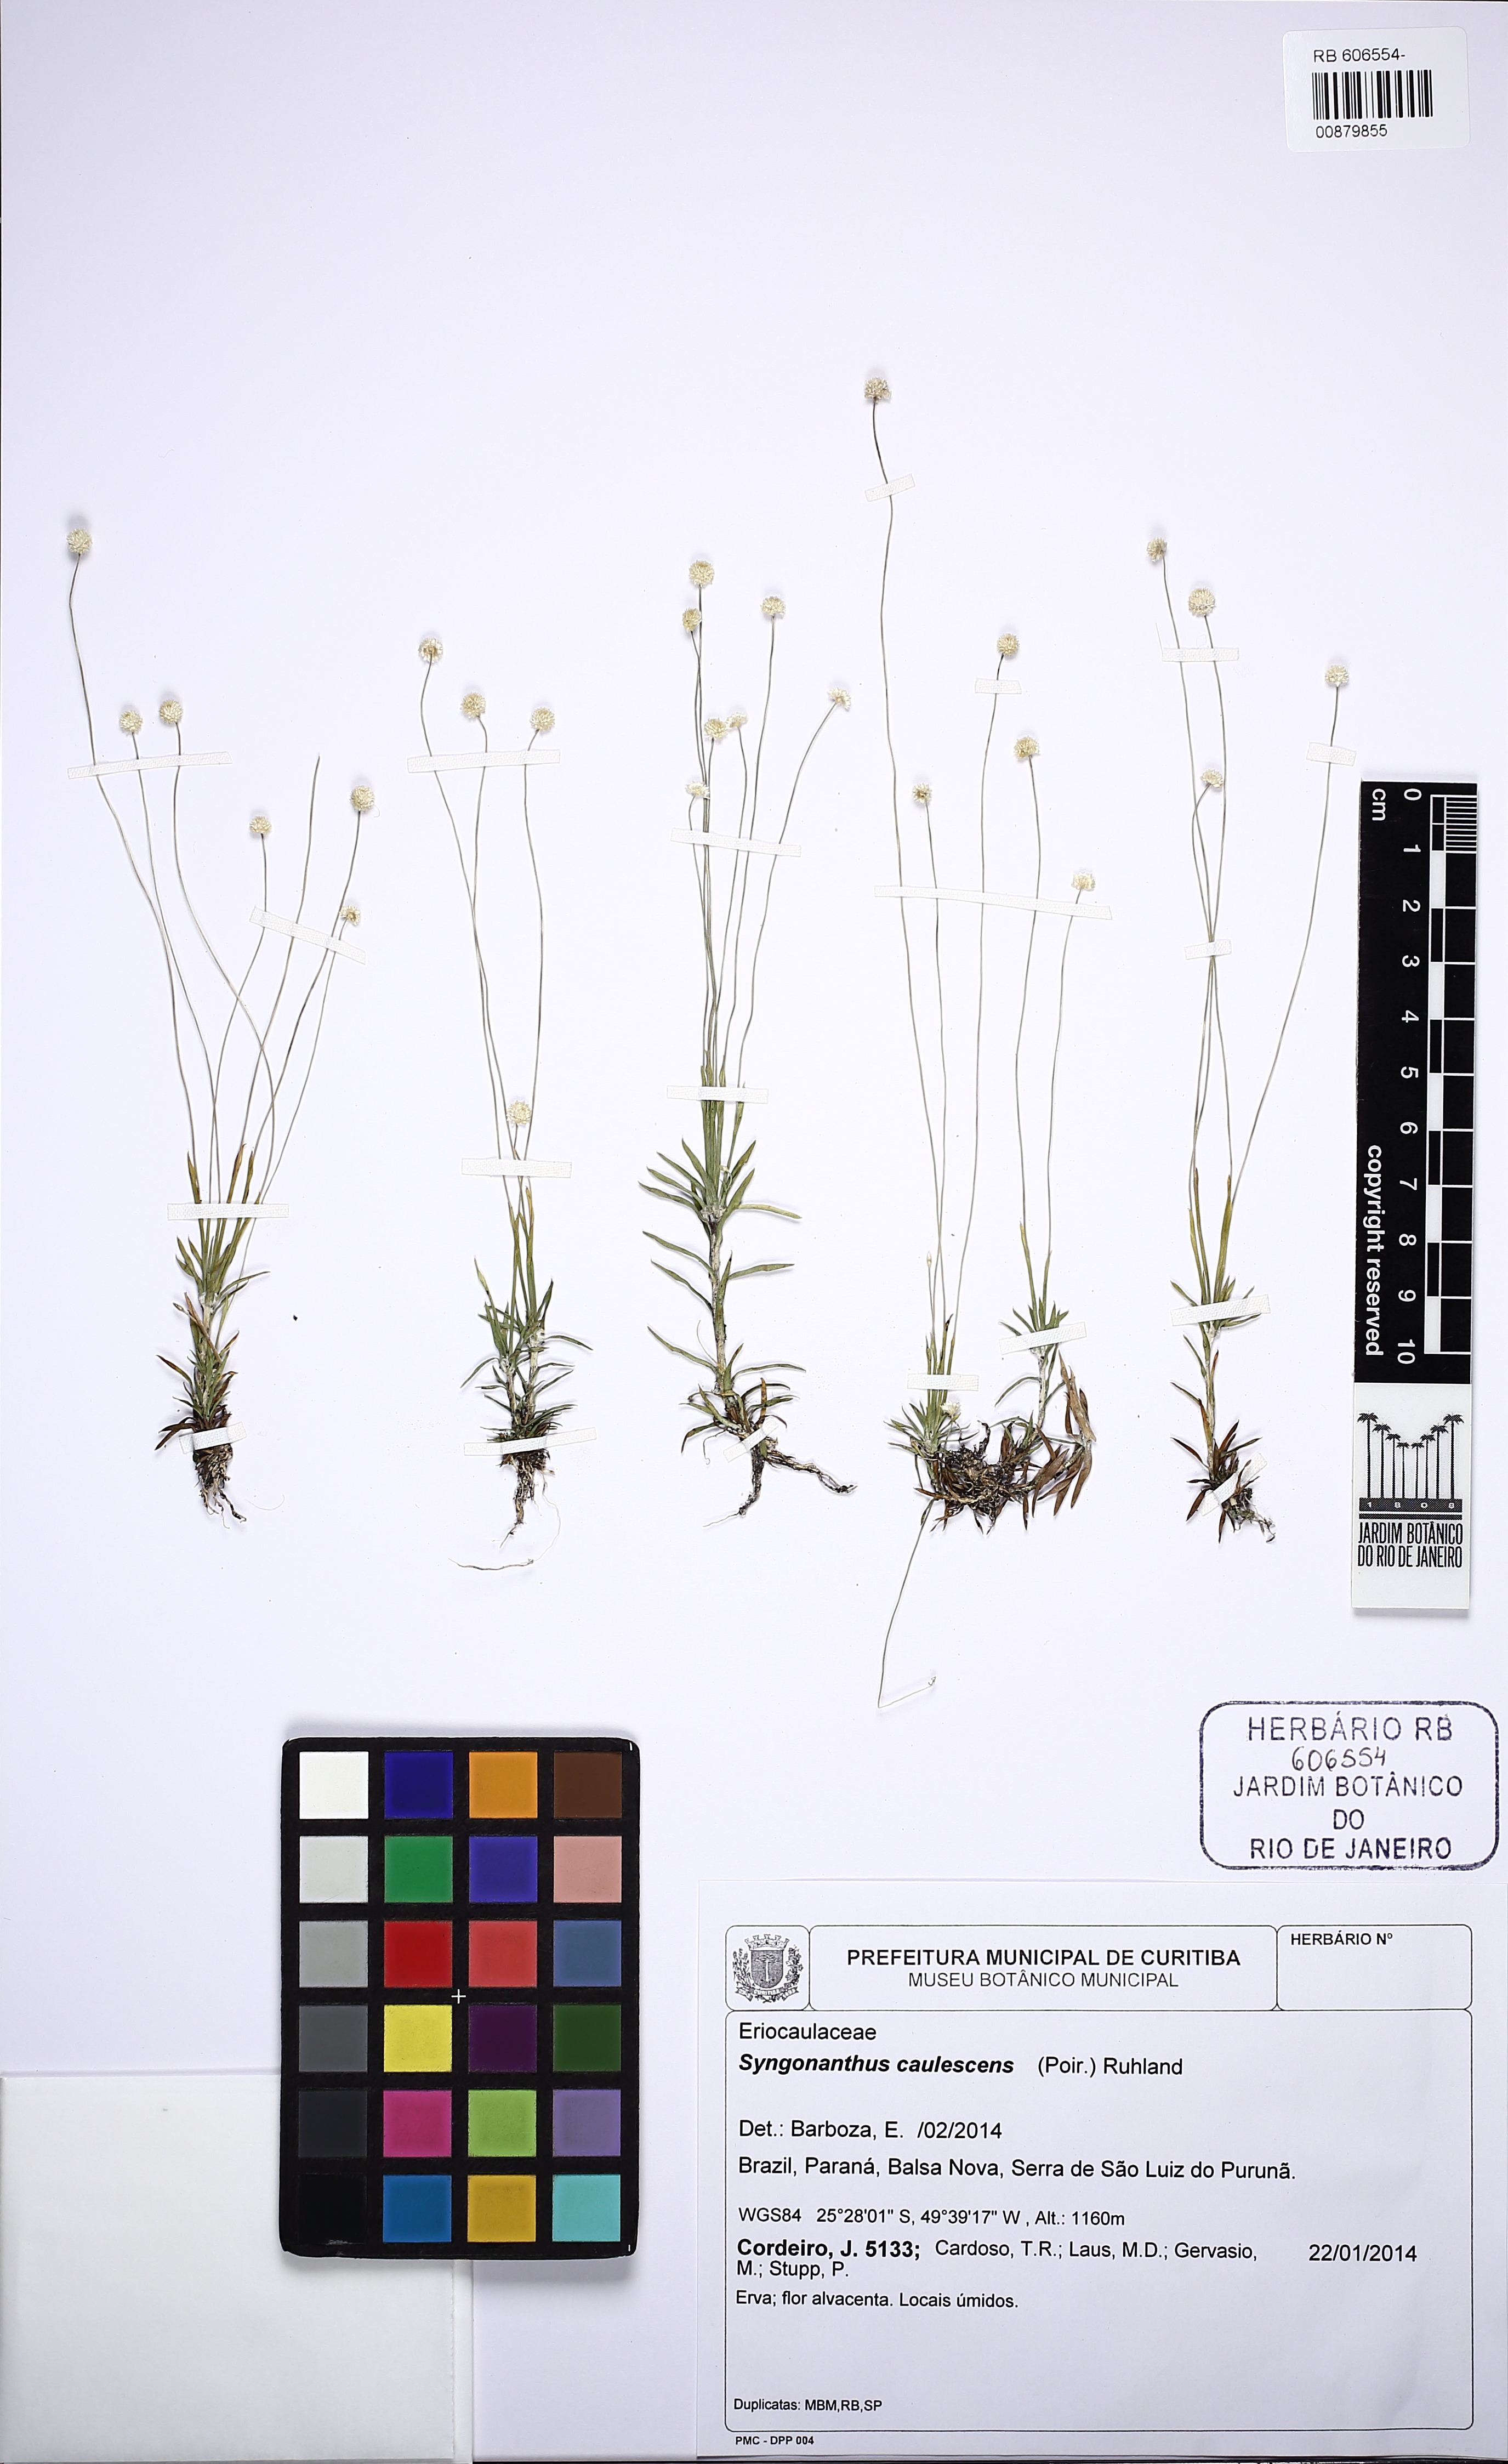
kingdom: Plantae
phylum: Tracheophyta
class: Liliopsida
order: Poales
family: Eriocaulaceae
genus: Syngonanthus
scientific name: Syngonanthus caulescens
